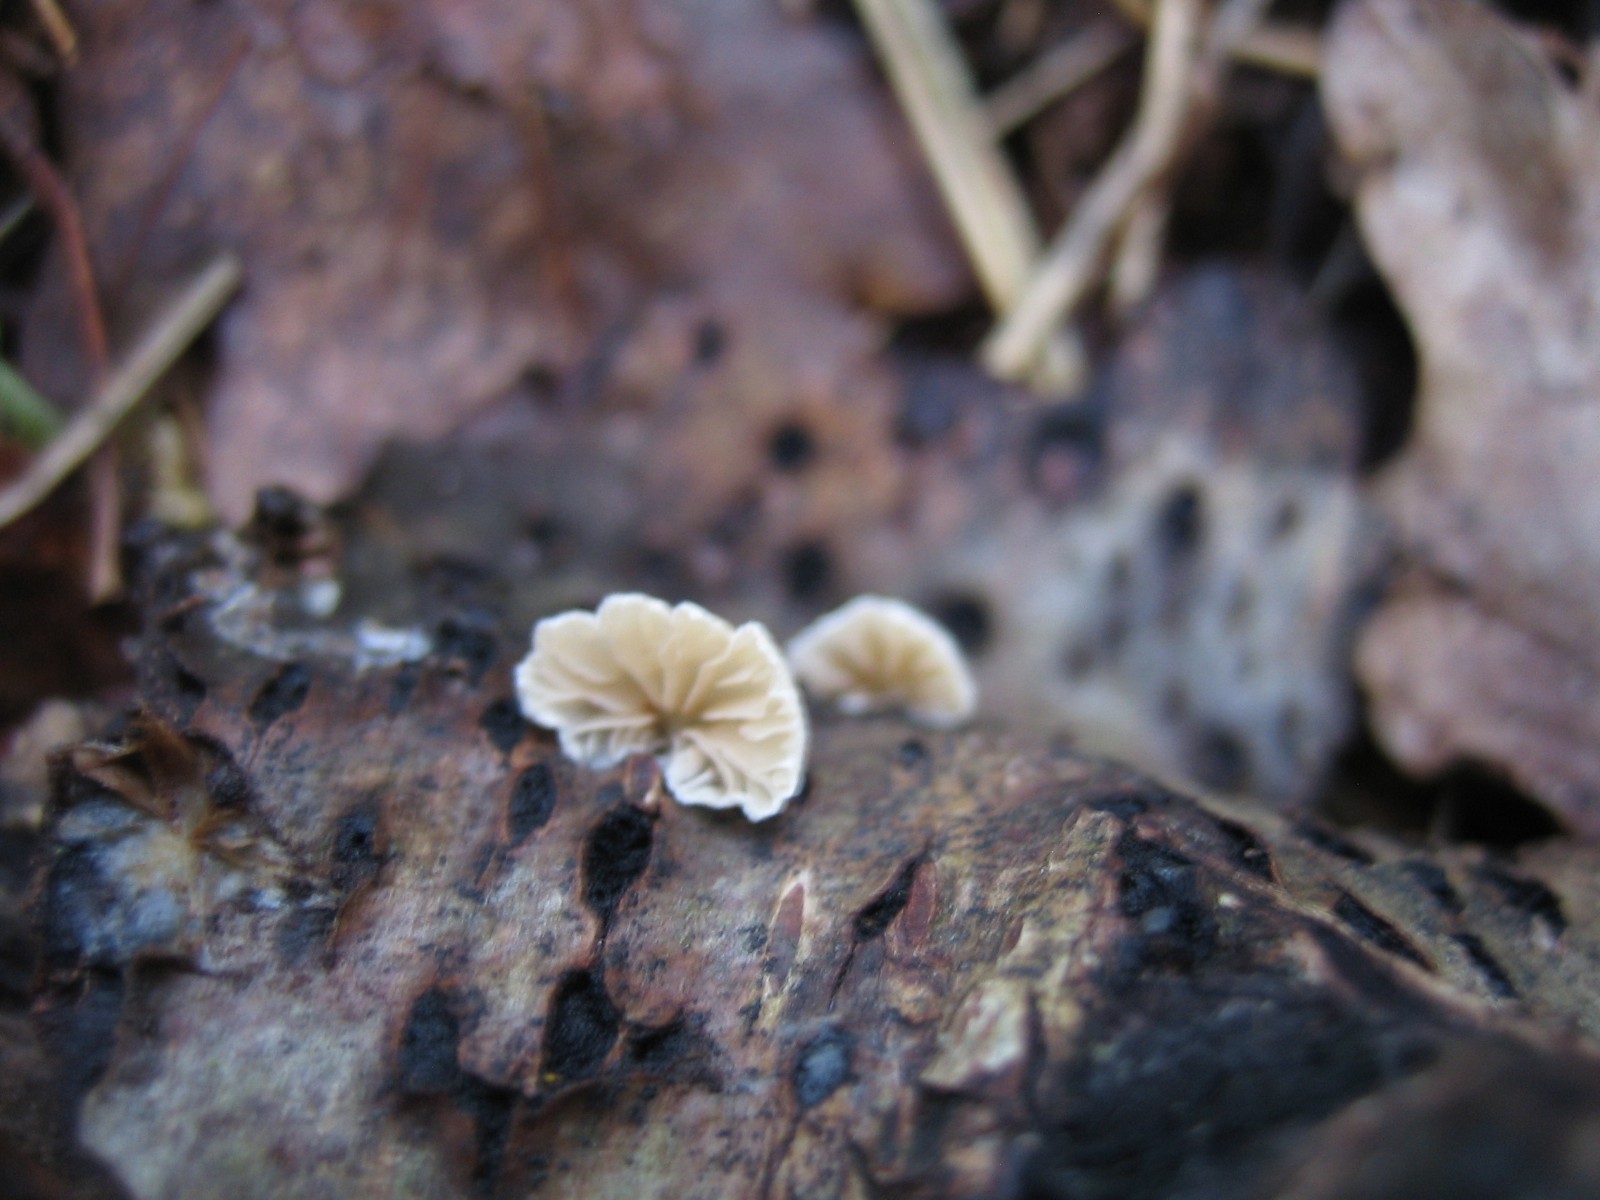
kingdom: Fungi
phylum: Basidiomycota
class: Agaricomycetes
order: Agaricales
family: Crepidotaceae
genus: Crepidotus
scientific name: Crepidotus
